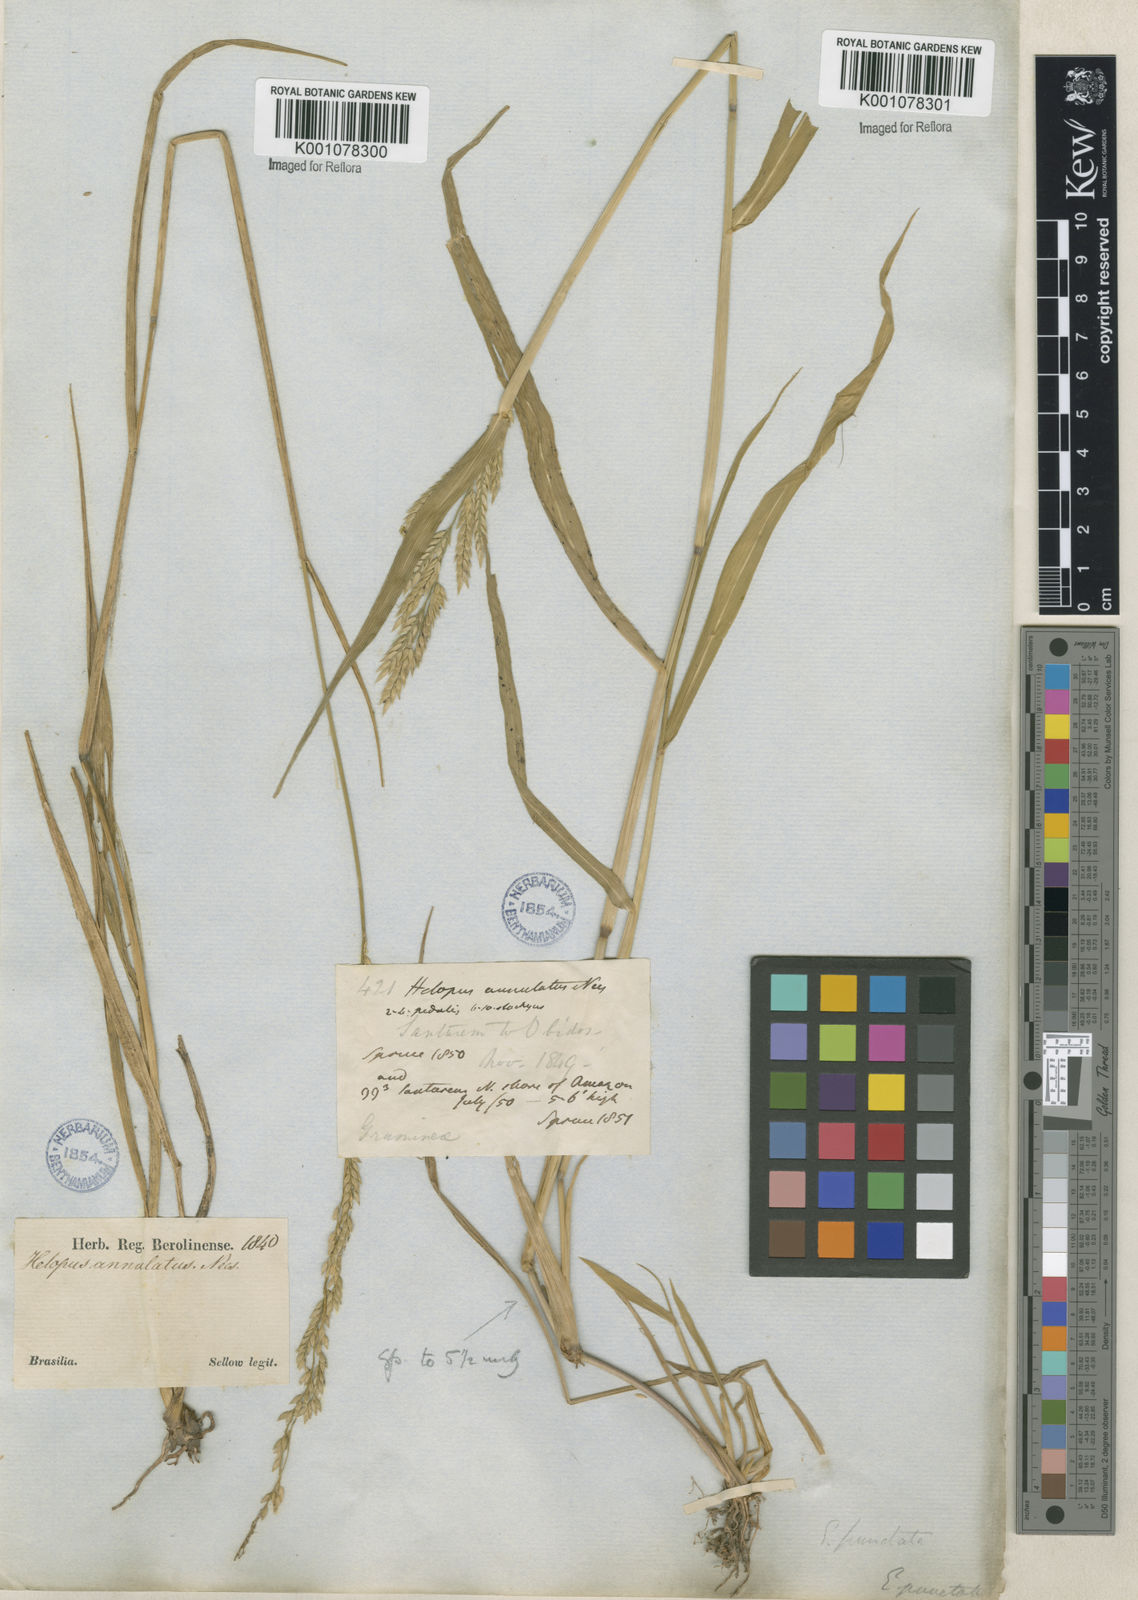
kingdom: Plantae
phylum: Tracheophyta
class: Liliopsida
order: Poales
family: Poaceae
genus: Eriochloa
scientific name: Eriochloa punctata
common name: Louisiana cupgrass
